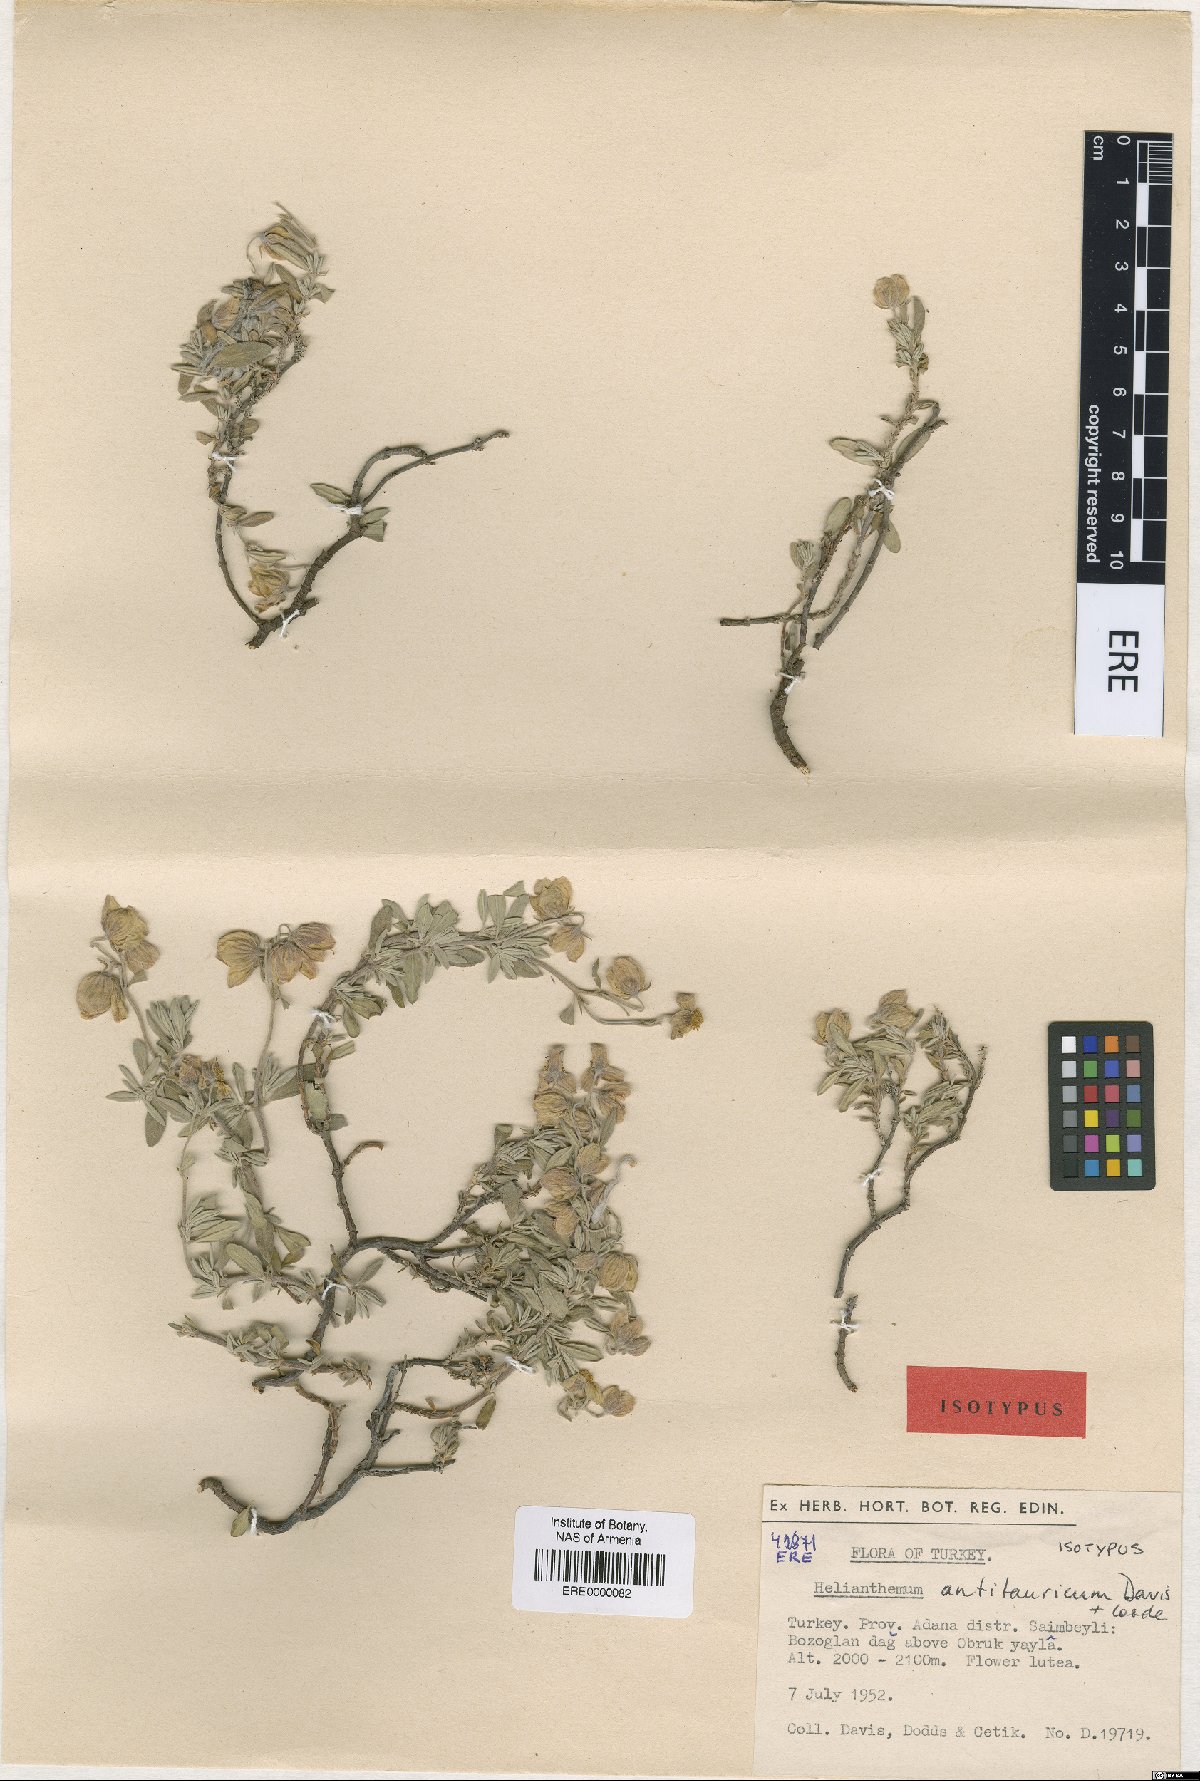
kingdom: Plantae
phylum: Tracheophyta
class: Magnoliopsida
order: Malvales
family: Cistaceae
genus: Helianthemum
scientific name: Helianthemum antitauricum
